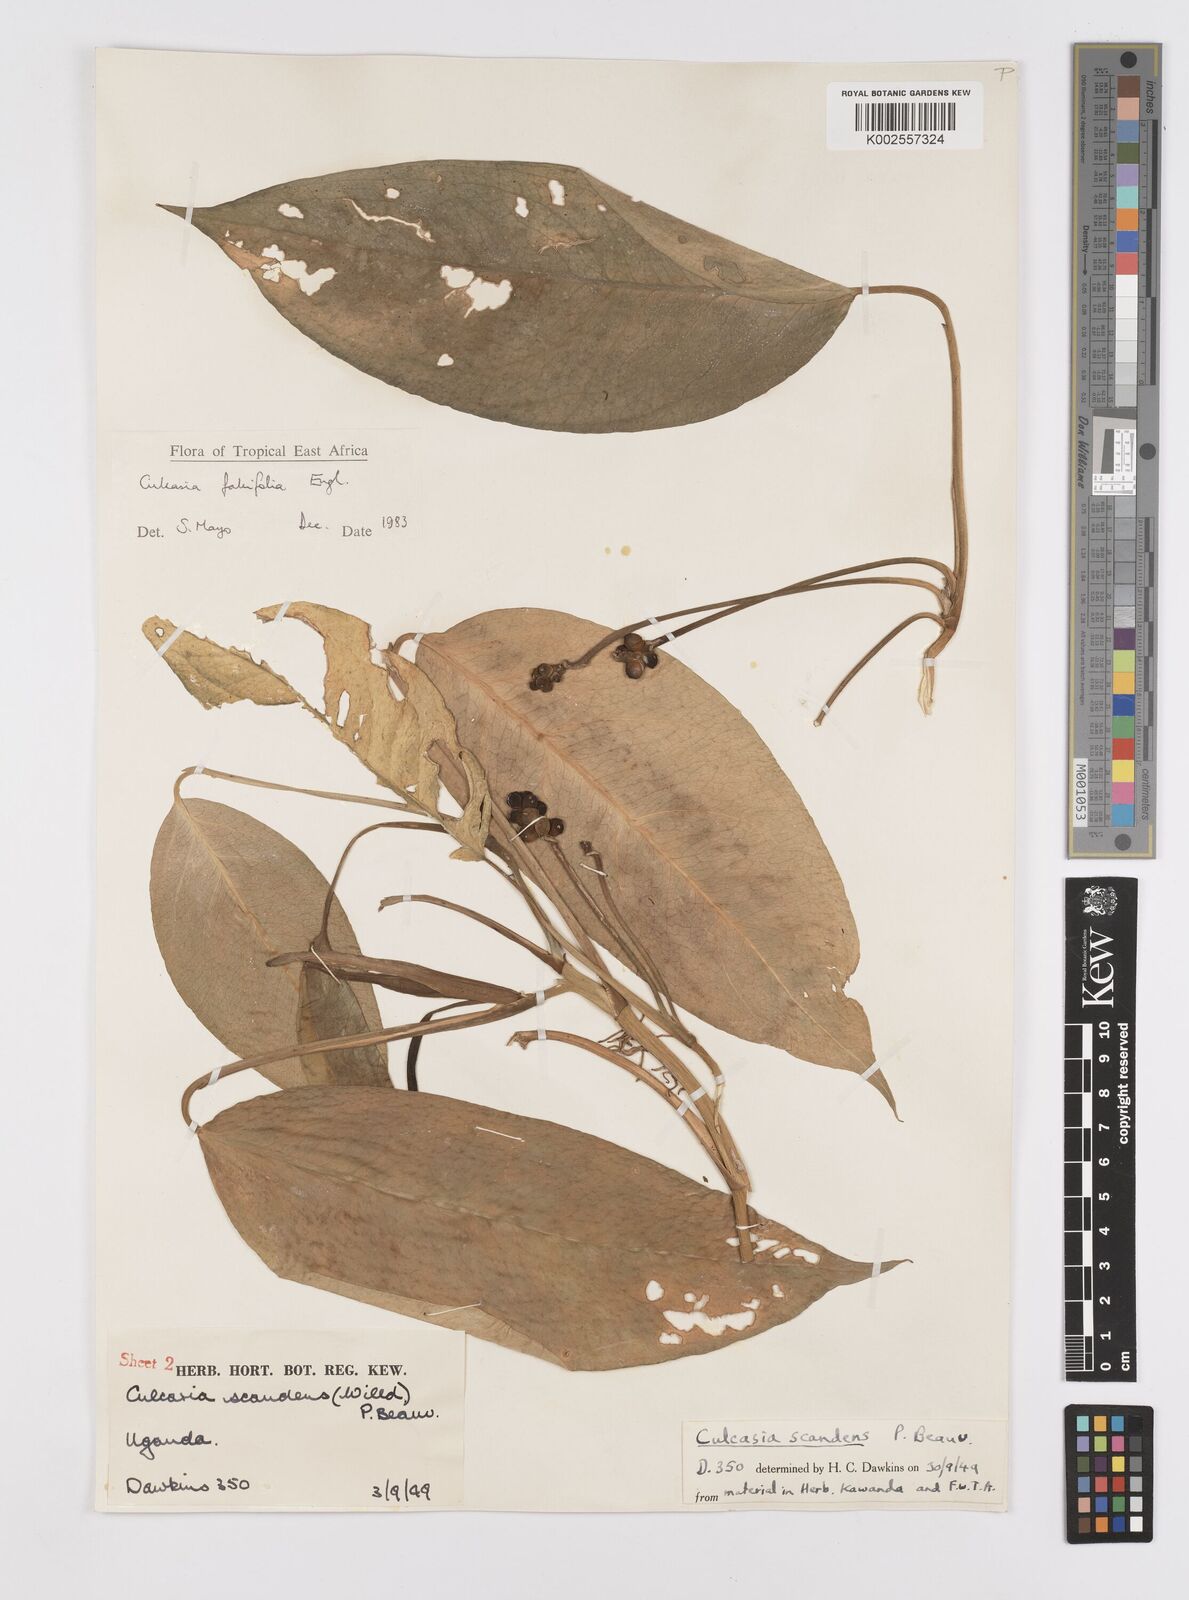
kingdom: Plantae
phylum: Tracheophyta
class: Liliopsida
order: Alismatales
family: Araceae
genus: Culcasia
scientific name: Culcasia falcifolia
